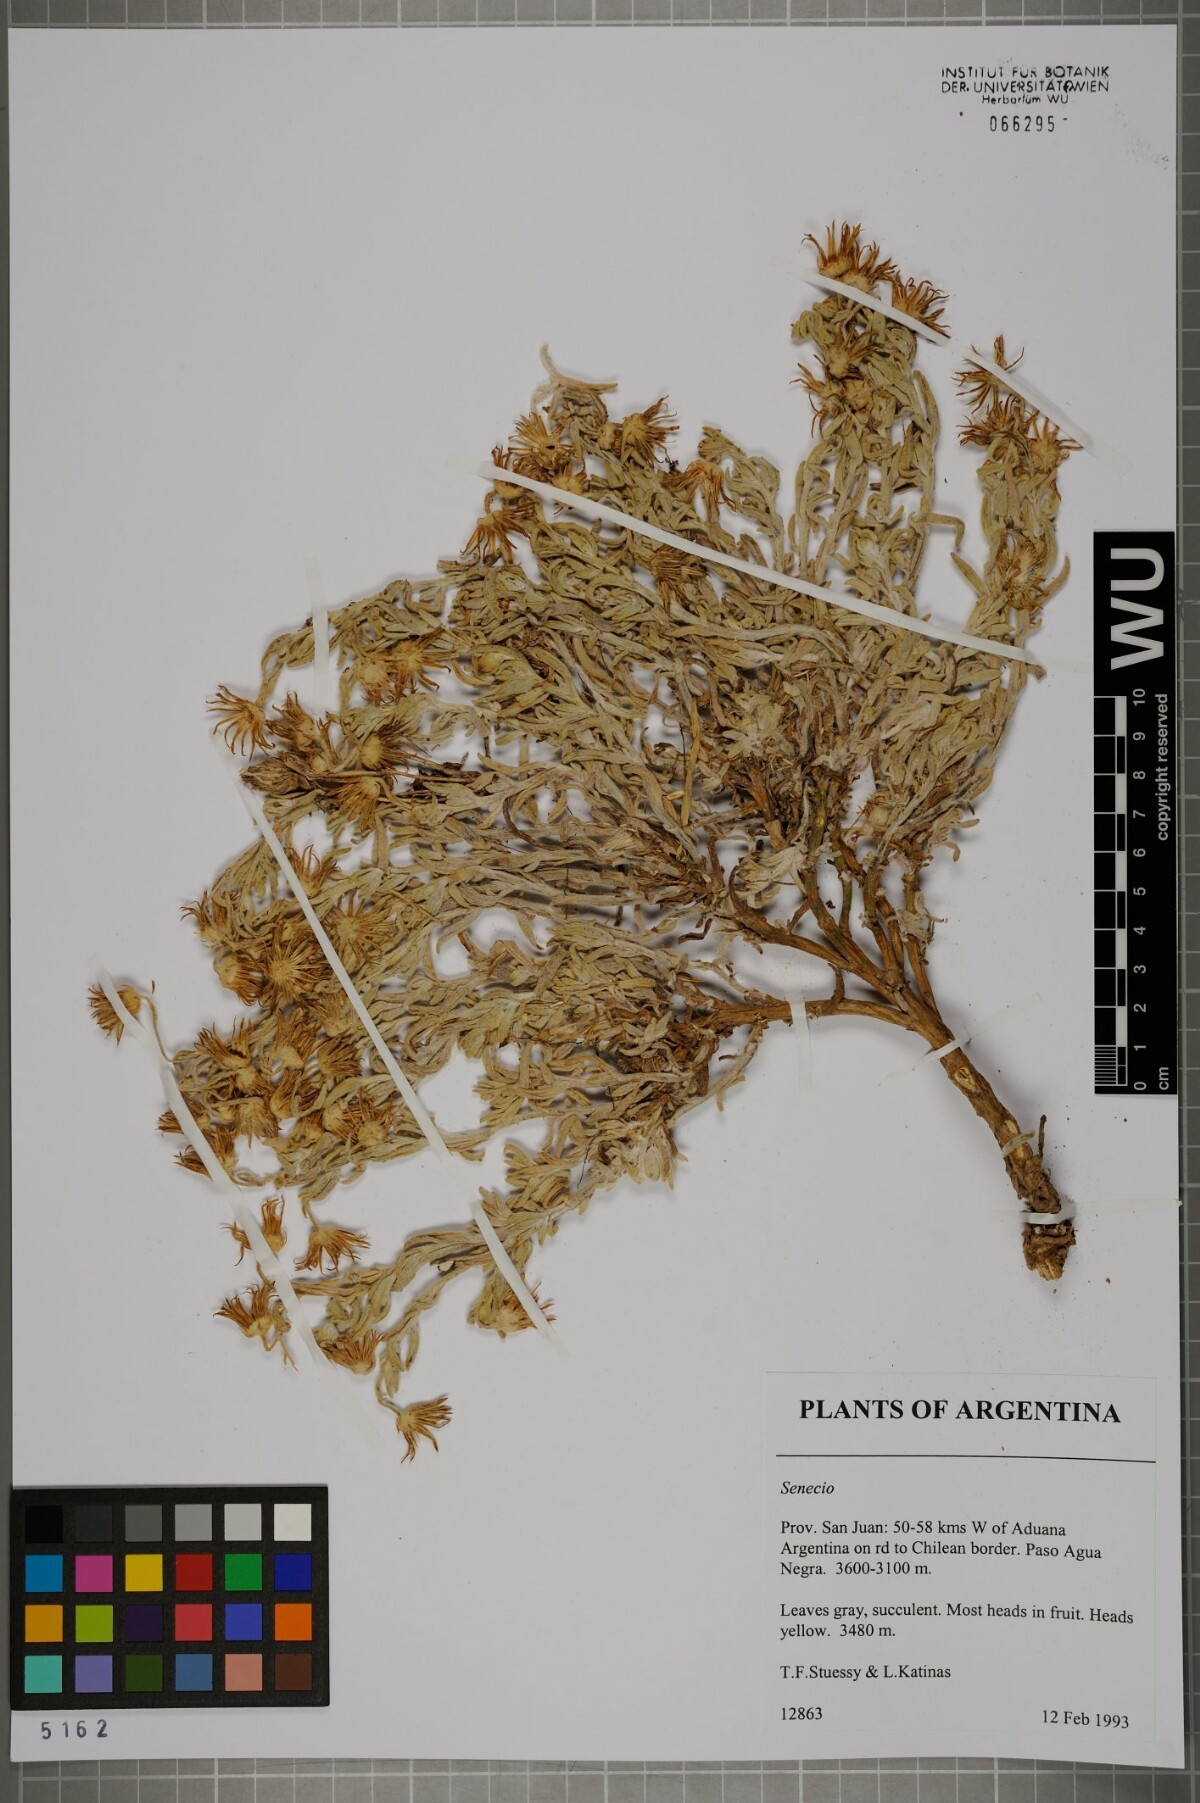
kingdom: Plantae
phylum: Tracheophyta
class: Magnoliopsida
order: Asterales
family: Asteraceae
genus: Senecio
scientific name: Senecio
